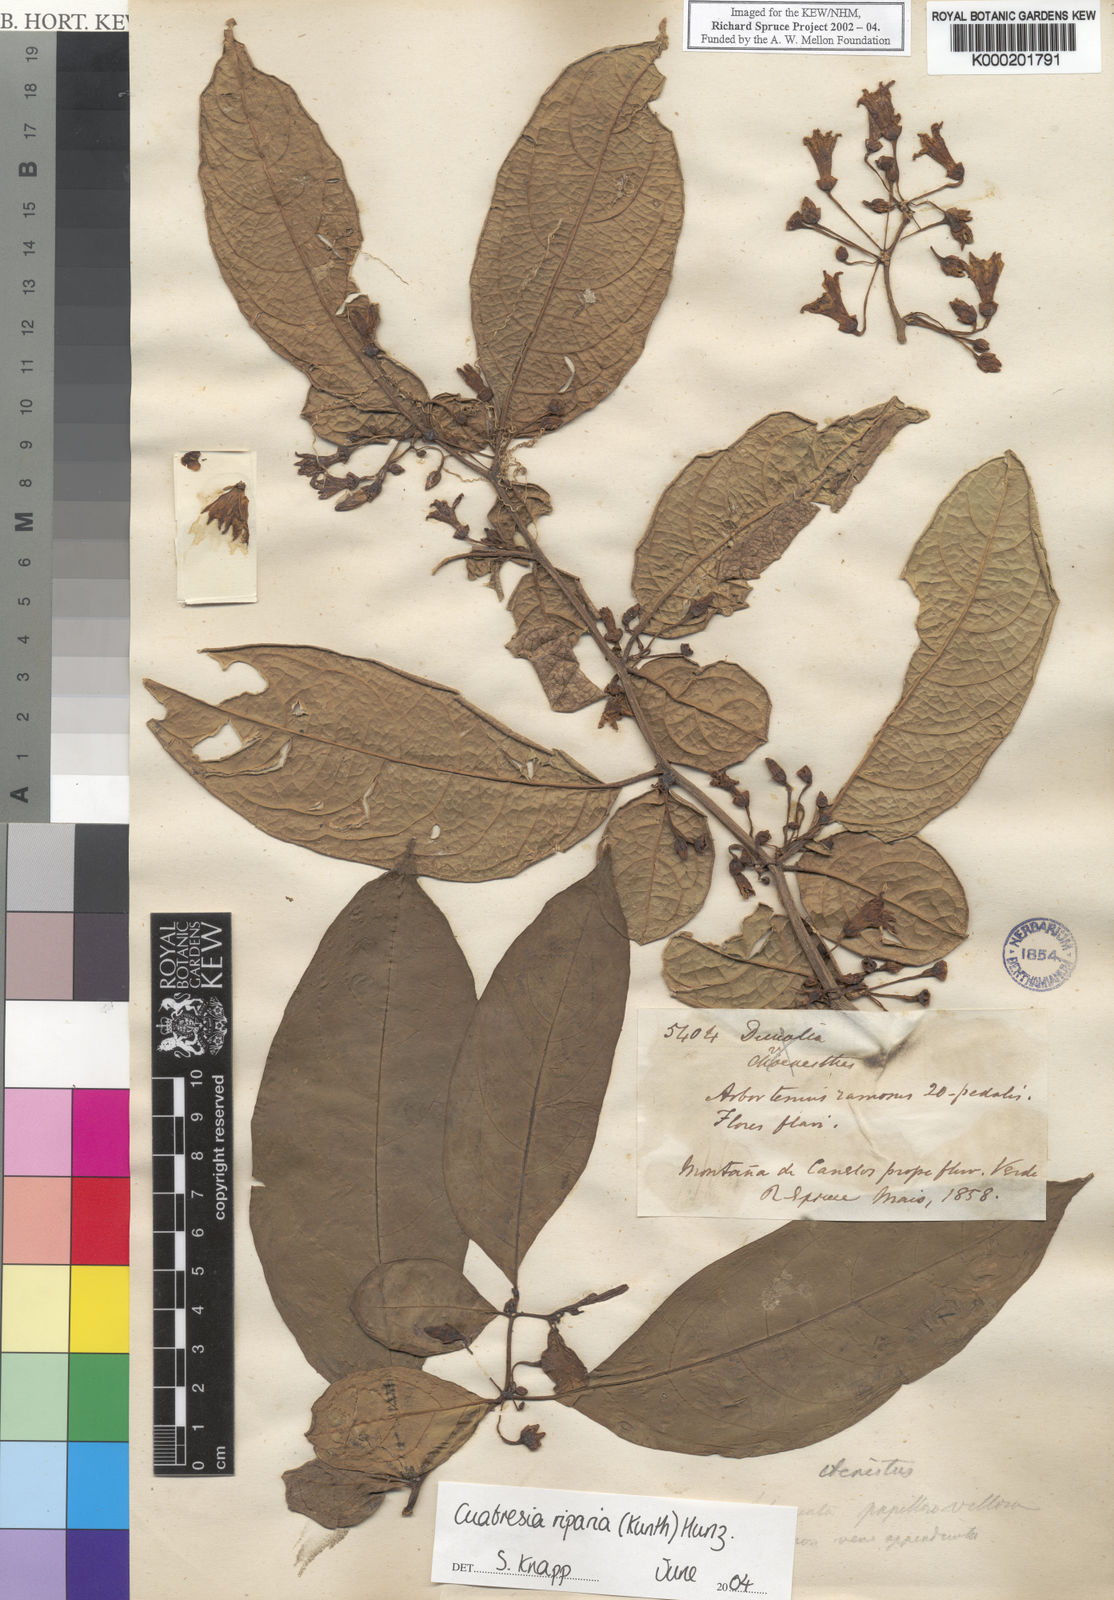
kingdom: Plantae
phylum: Tracheophyta
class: Magnoliopsida
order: Solanales
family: Solanaceae
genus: Cuatresia
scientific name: Cuatresia riparia
